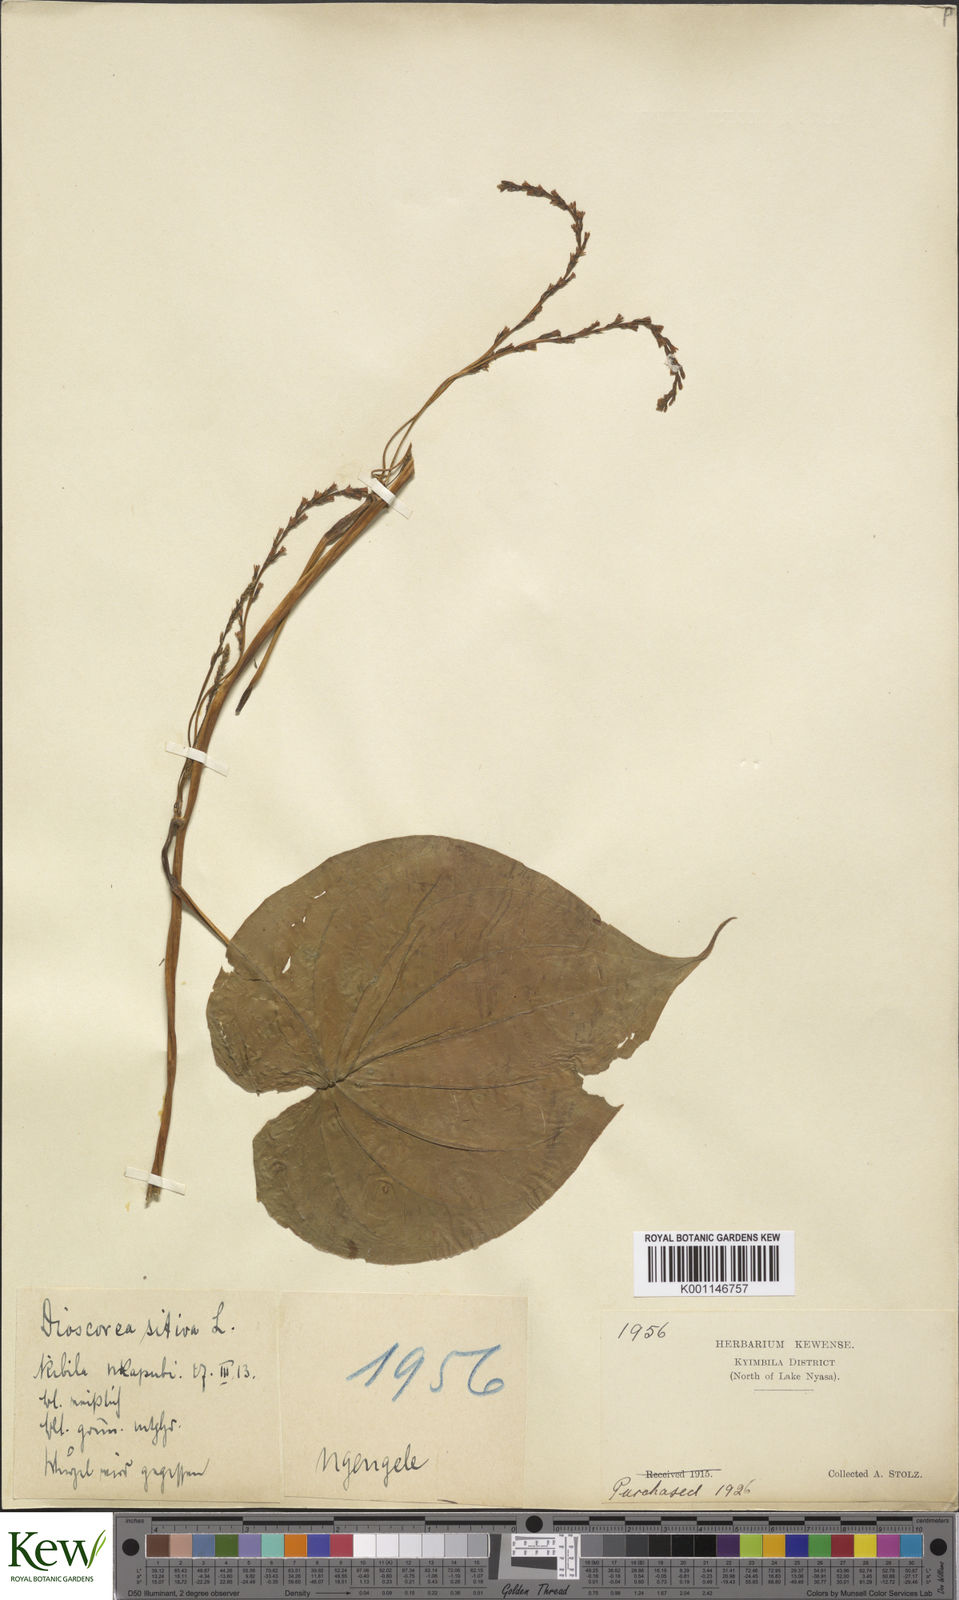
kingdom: Plantae
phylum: Tracheophyta
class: Liliopsida
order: Dioscoreales
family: Dioscoreaceae
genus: Dioscorea
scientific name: Dioscorea bulbifera
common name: Air yam
